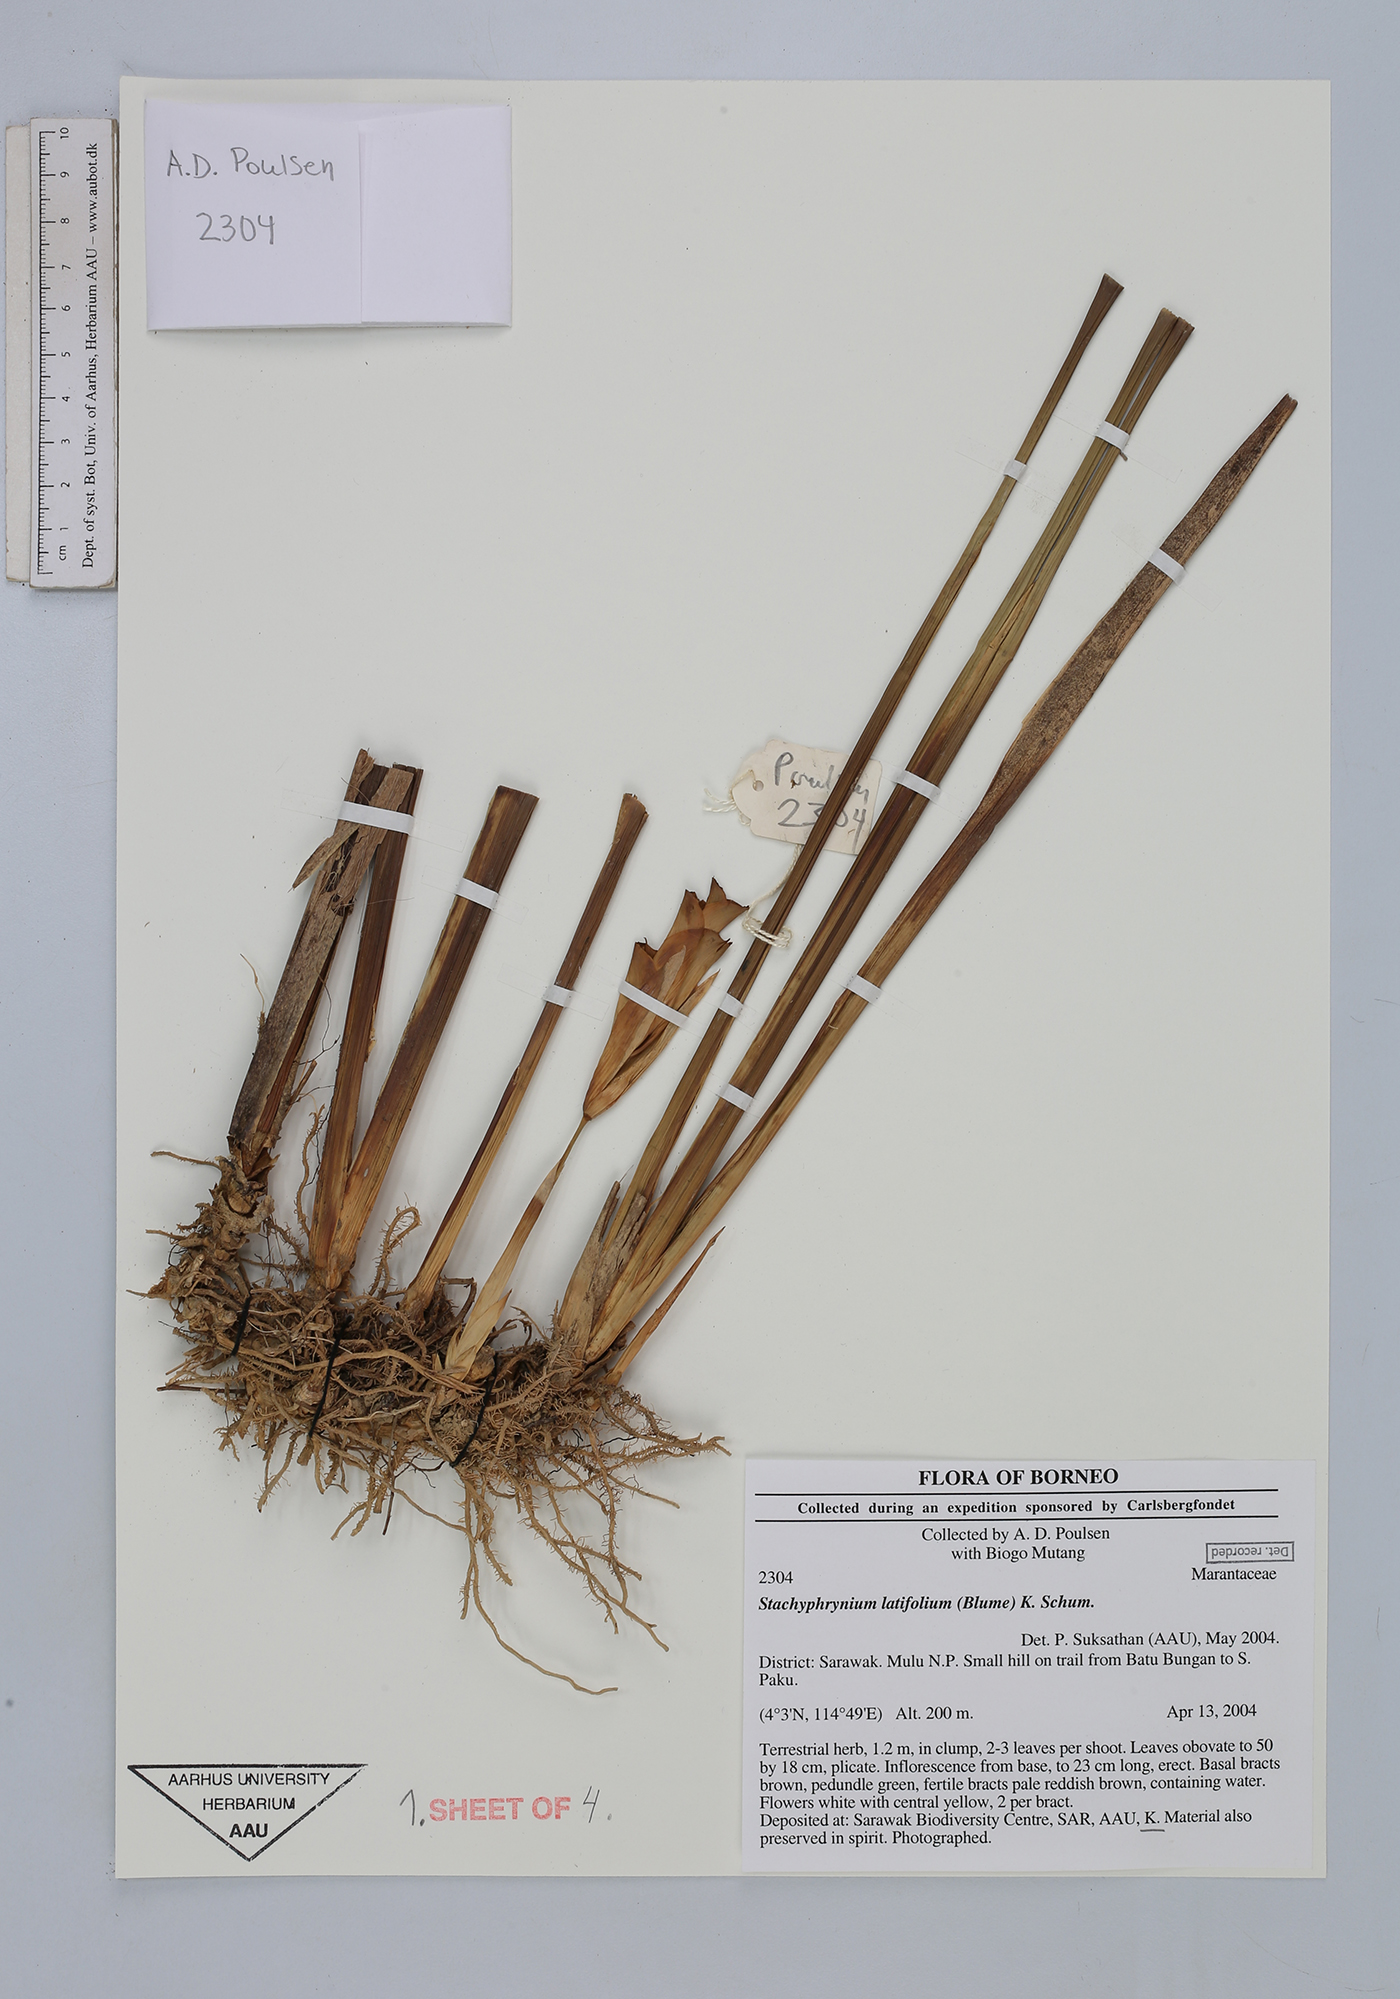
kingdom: Plantae
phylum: Tracheophyta
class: Liliopsida
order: Zingiberales
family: Marantaceae
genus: Stachyphrynium
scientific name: Stachyphrynium latifolium
